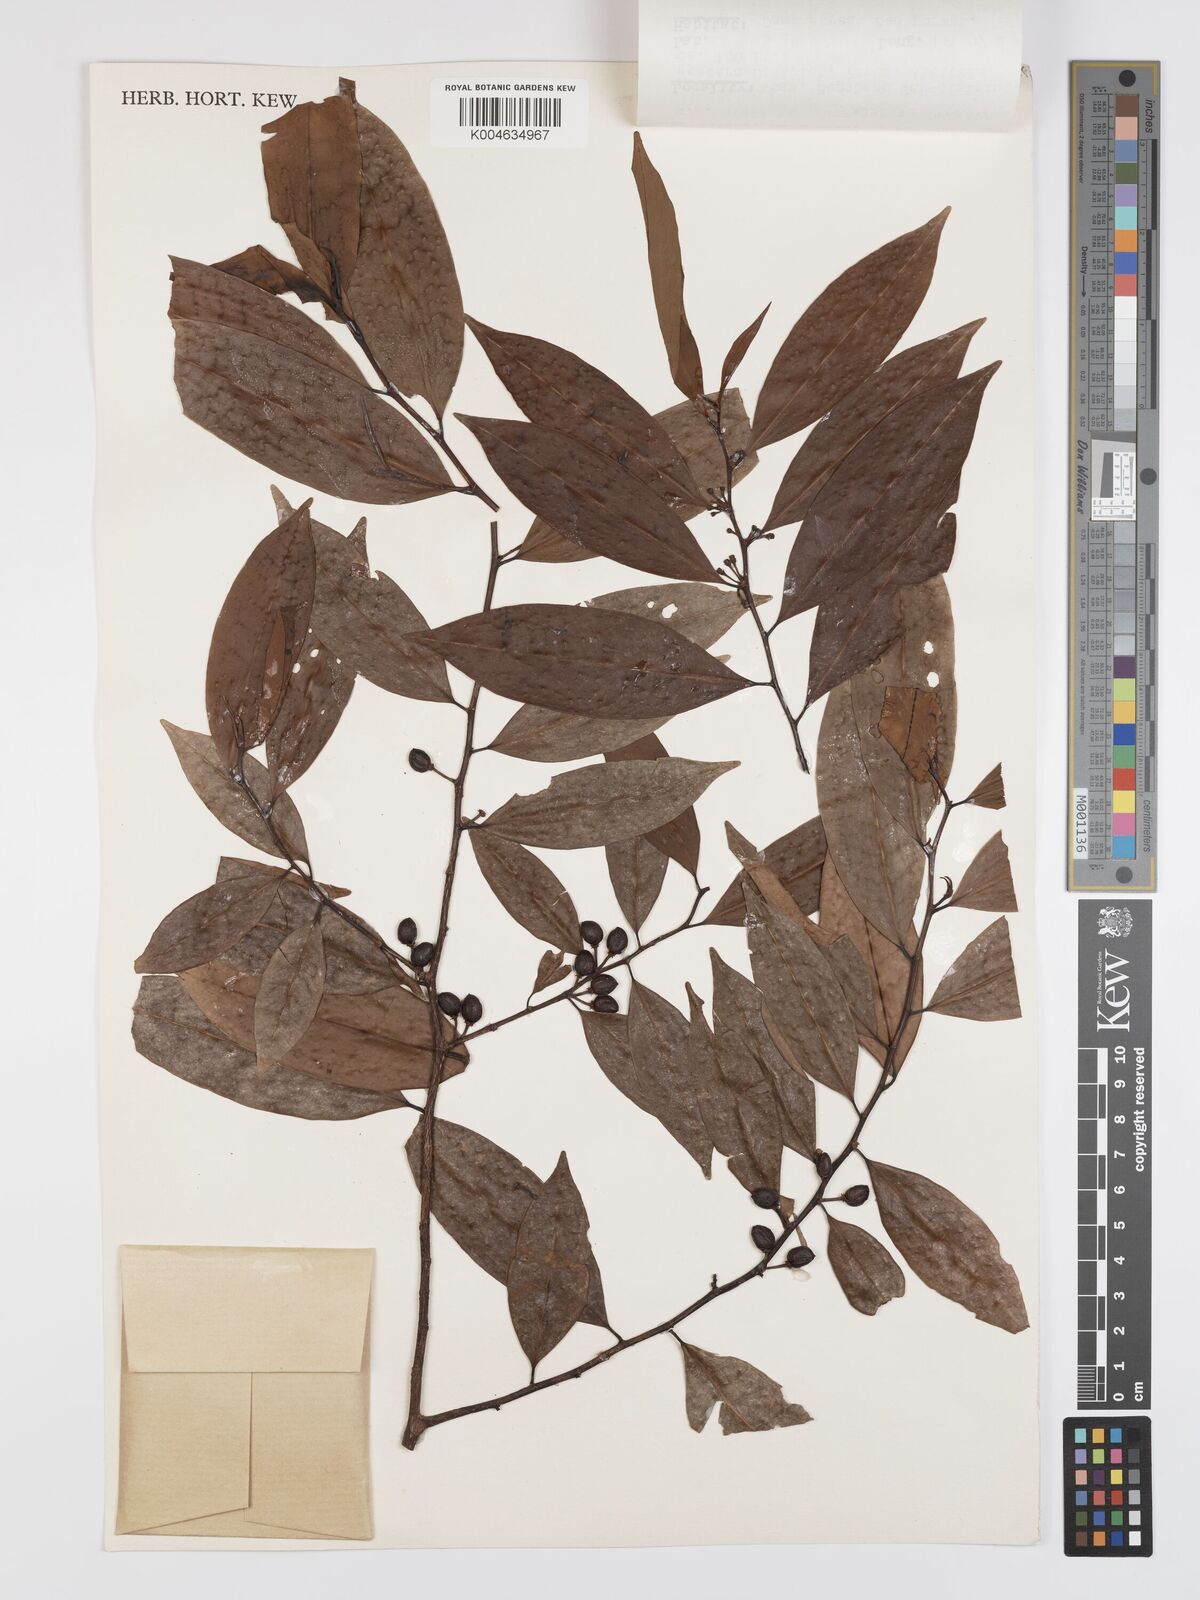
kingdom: Plantae
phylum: Tracheophyta
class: Magnoliopsida
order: Malpighiales
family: Erythroxylaceae
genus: Erythroxylum
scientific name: Erythroxylum ecarinatum
